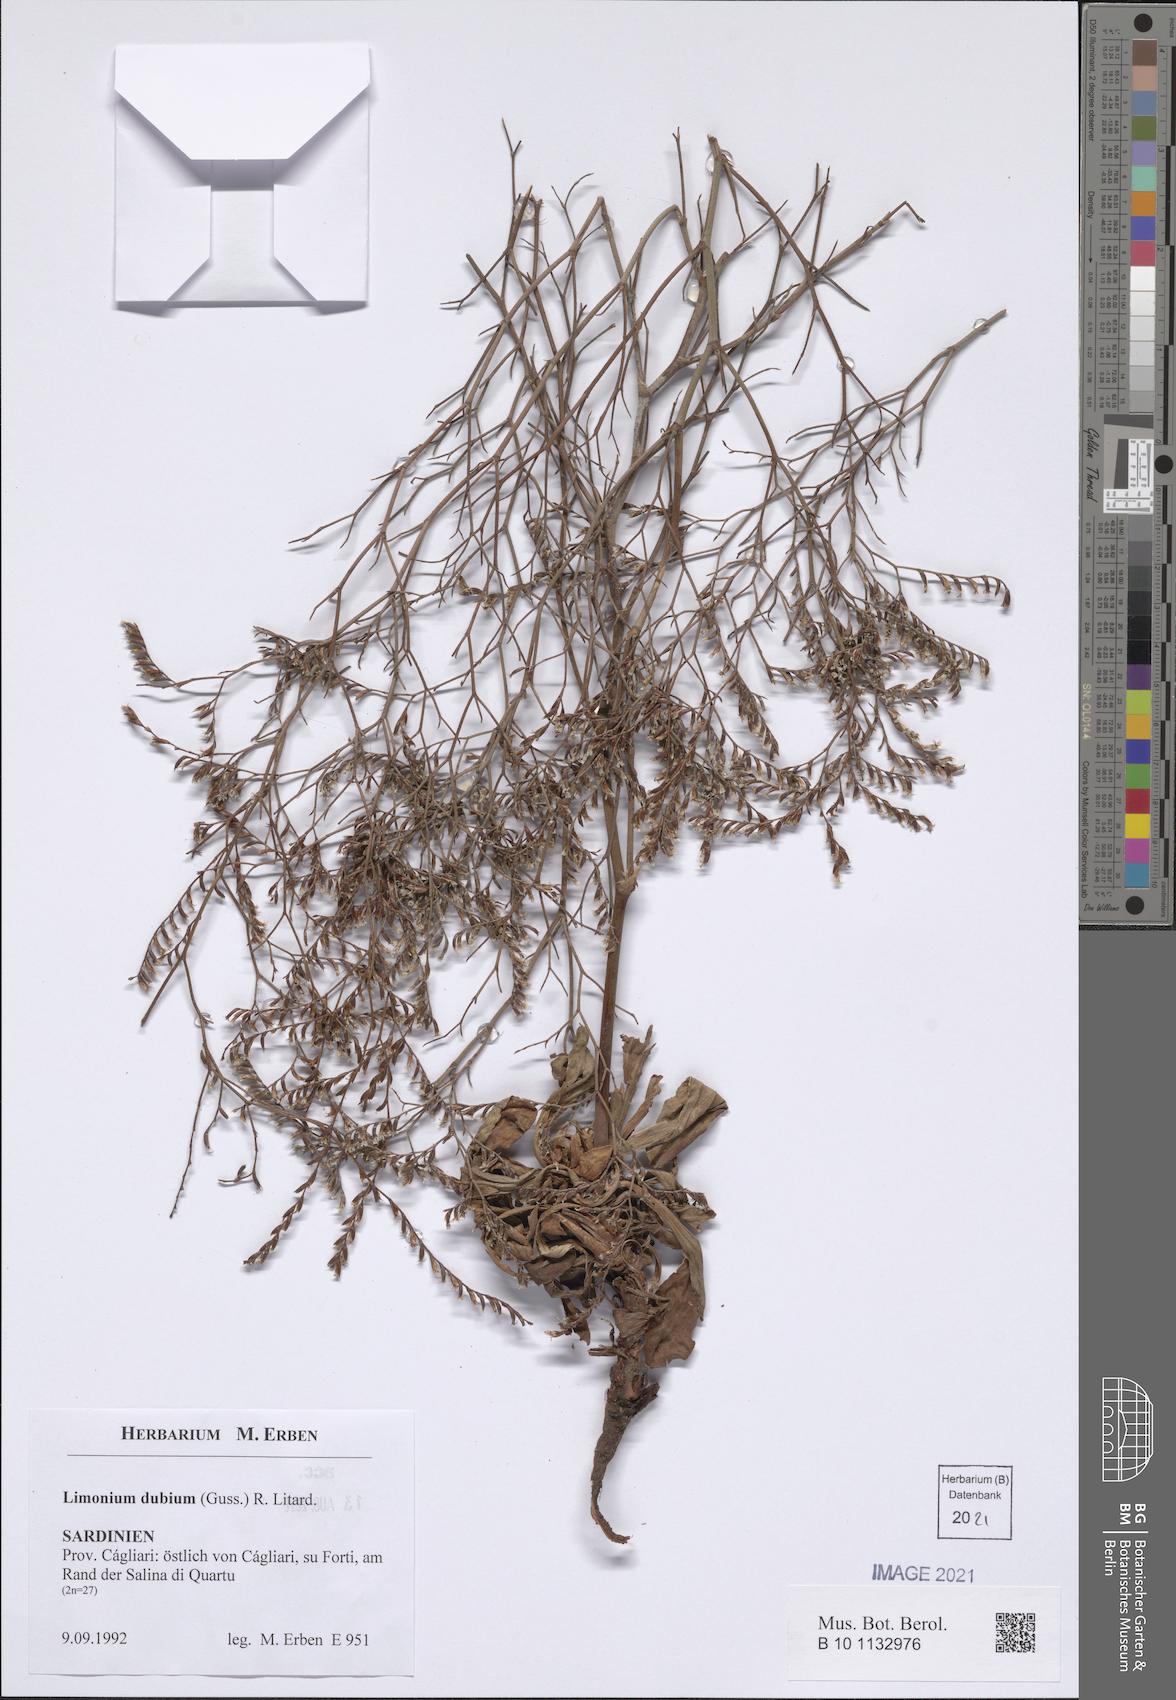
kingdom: Plantae
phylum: Tracheophyta
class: Magnoliopsida
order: Caryophyllales
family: Plumbaginaceae
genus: Limonium
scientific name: Limonium dubium
